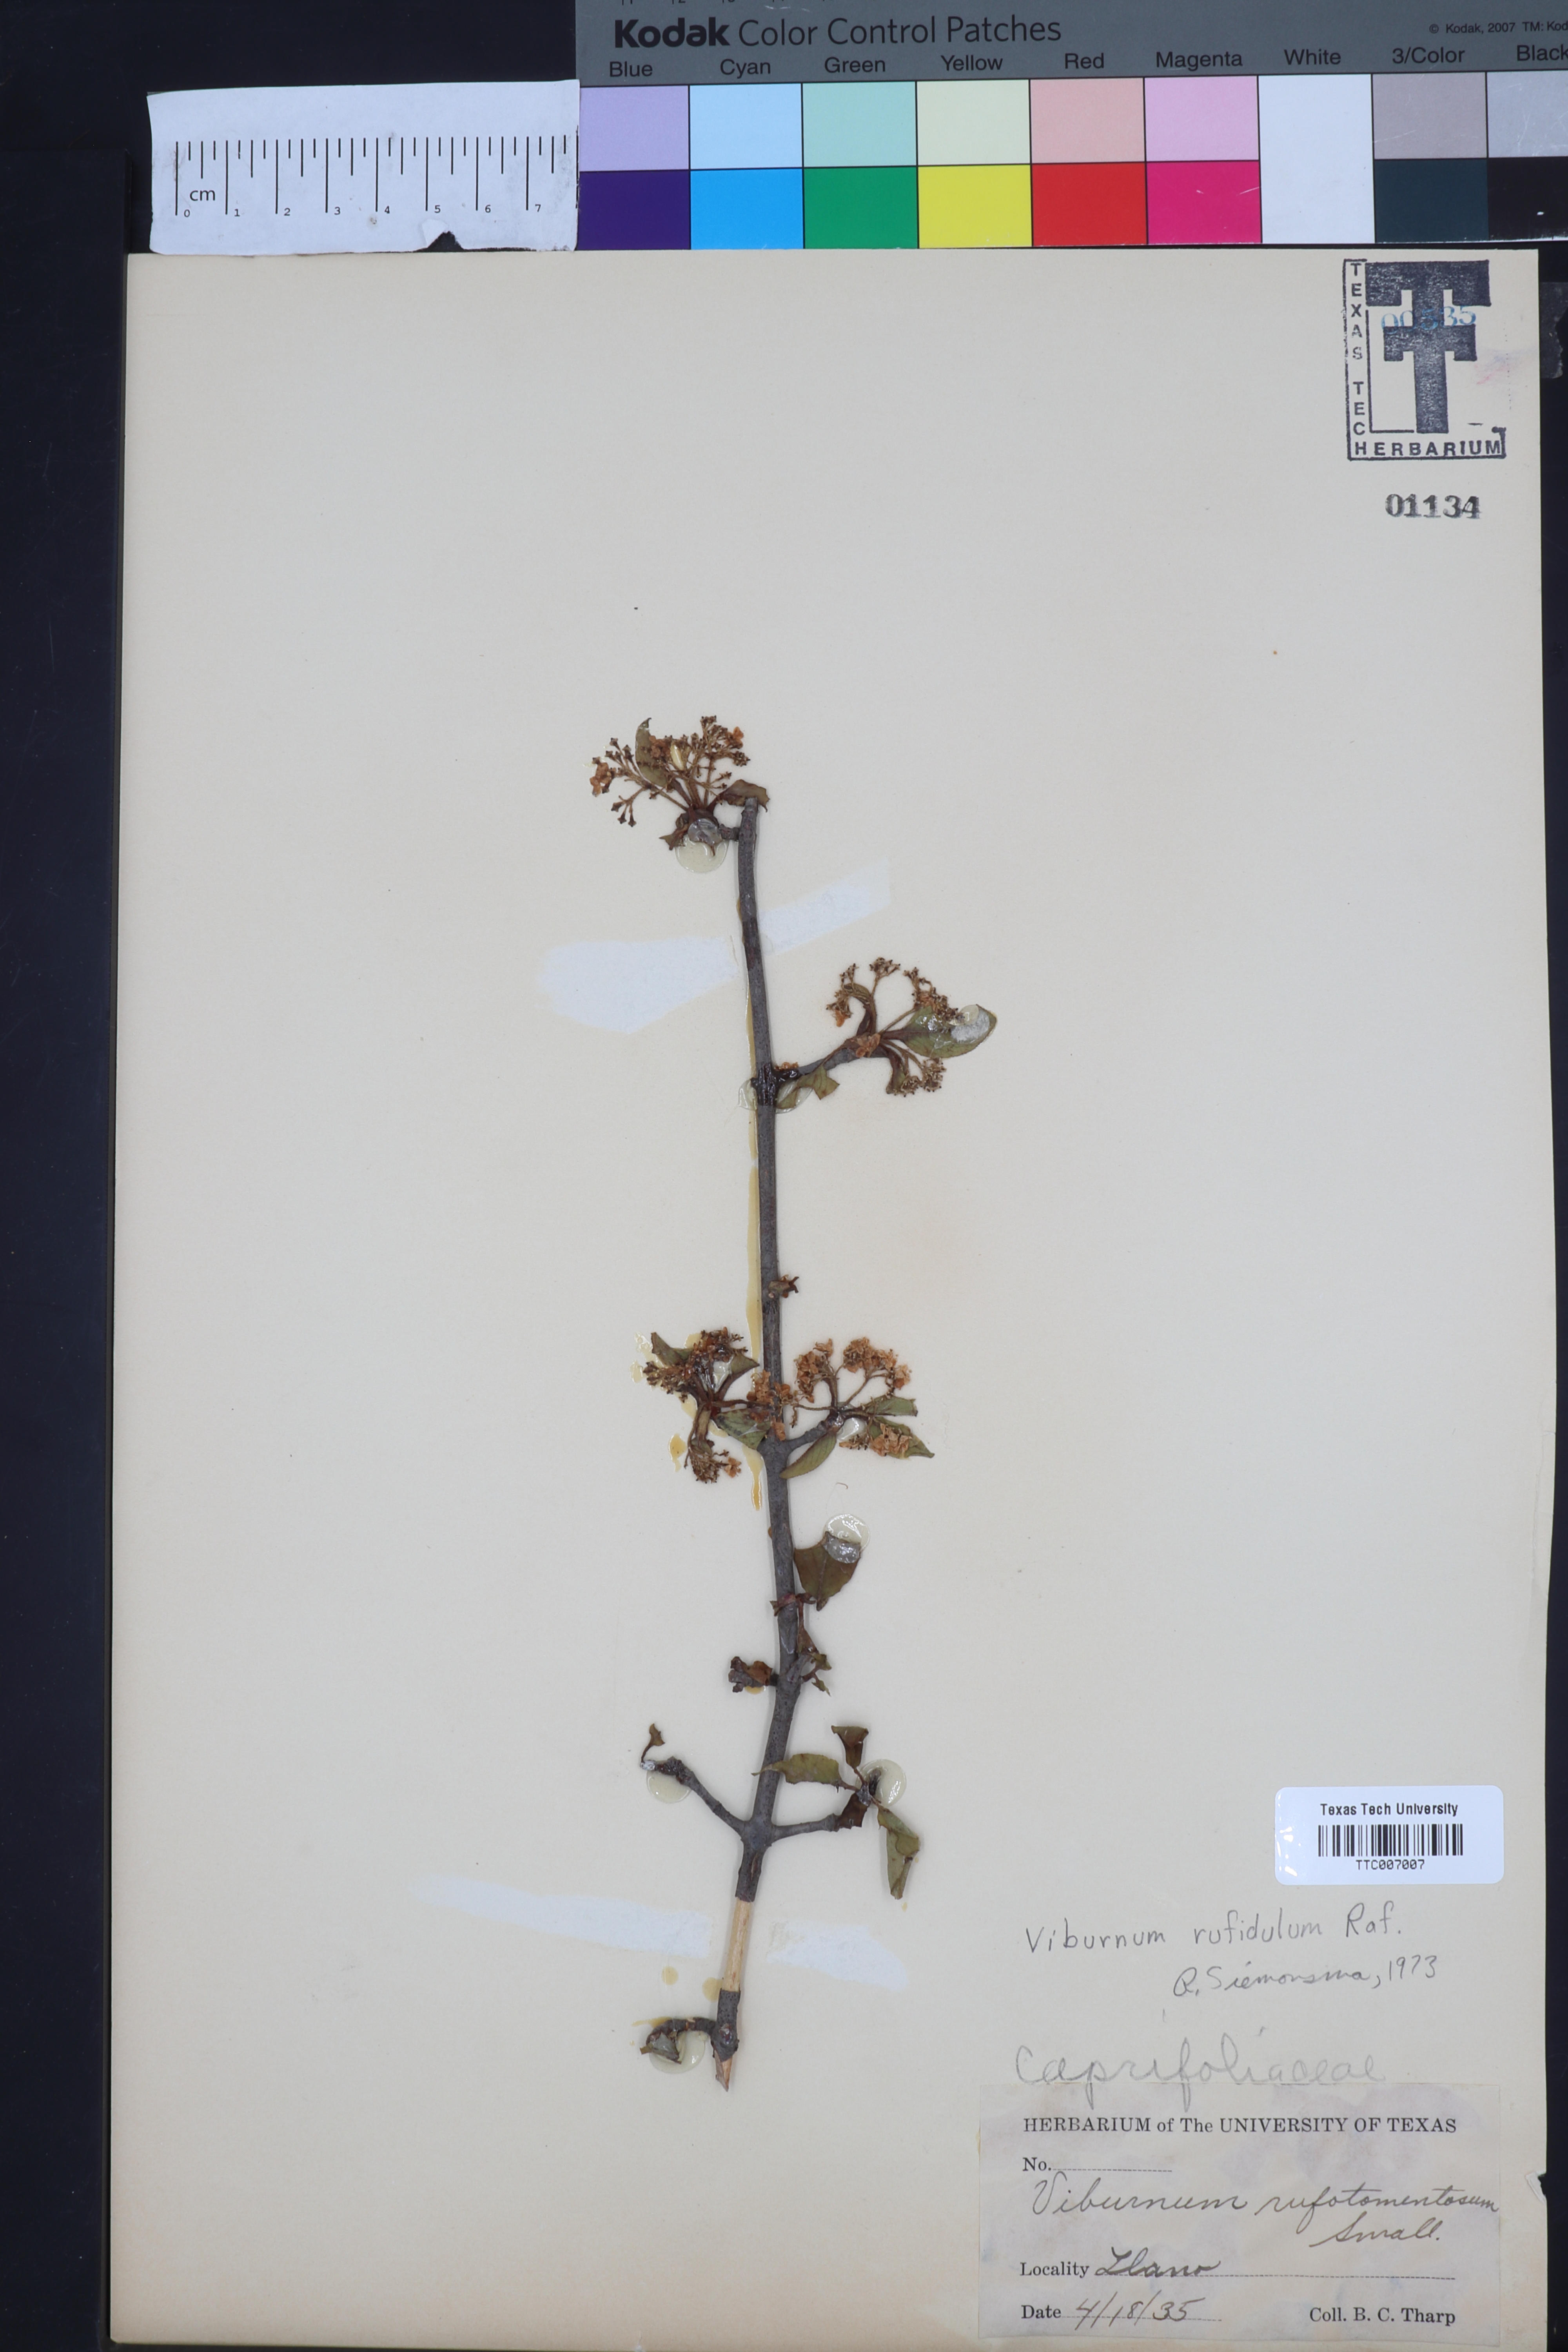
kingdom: Plantae
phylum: Tracheophyta
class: Magnoliopsida
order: Dipsacales
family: Viburnaceae
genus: Viburnum
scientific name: Viburnum rufidulum
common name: Blue haw
